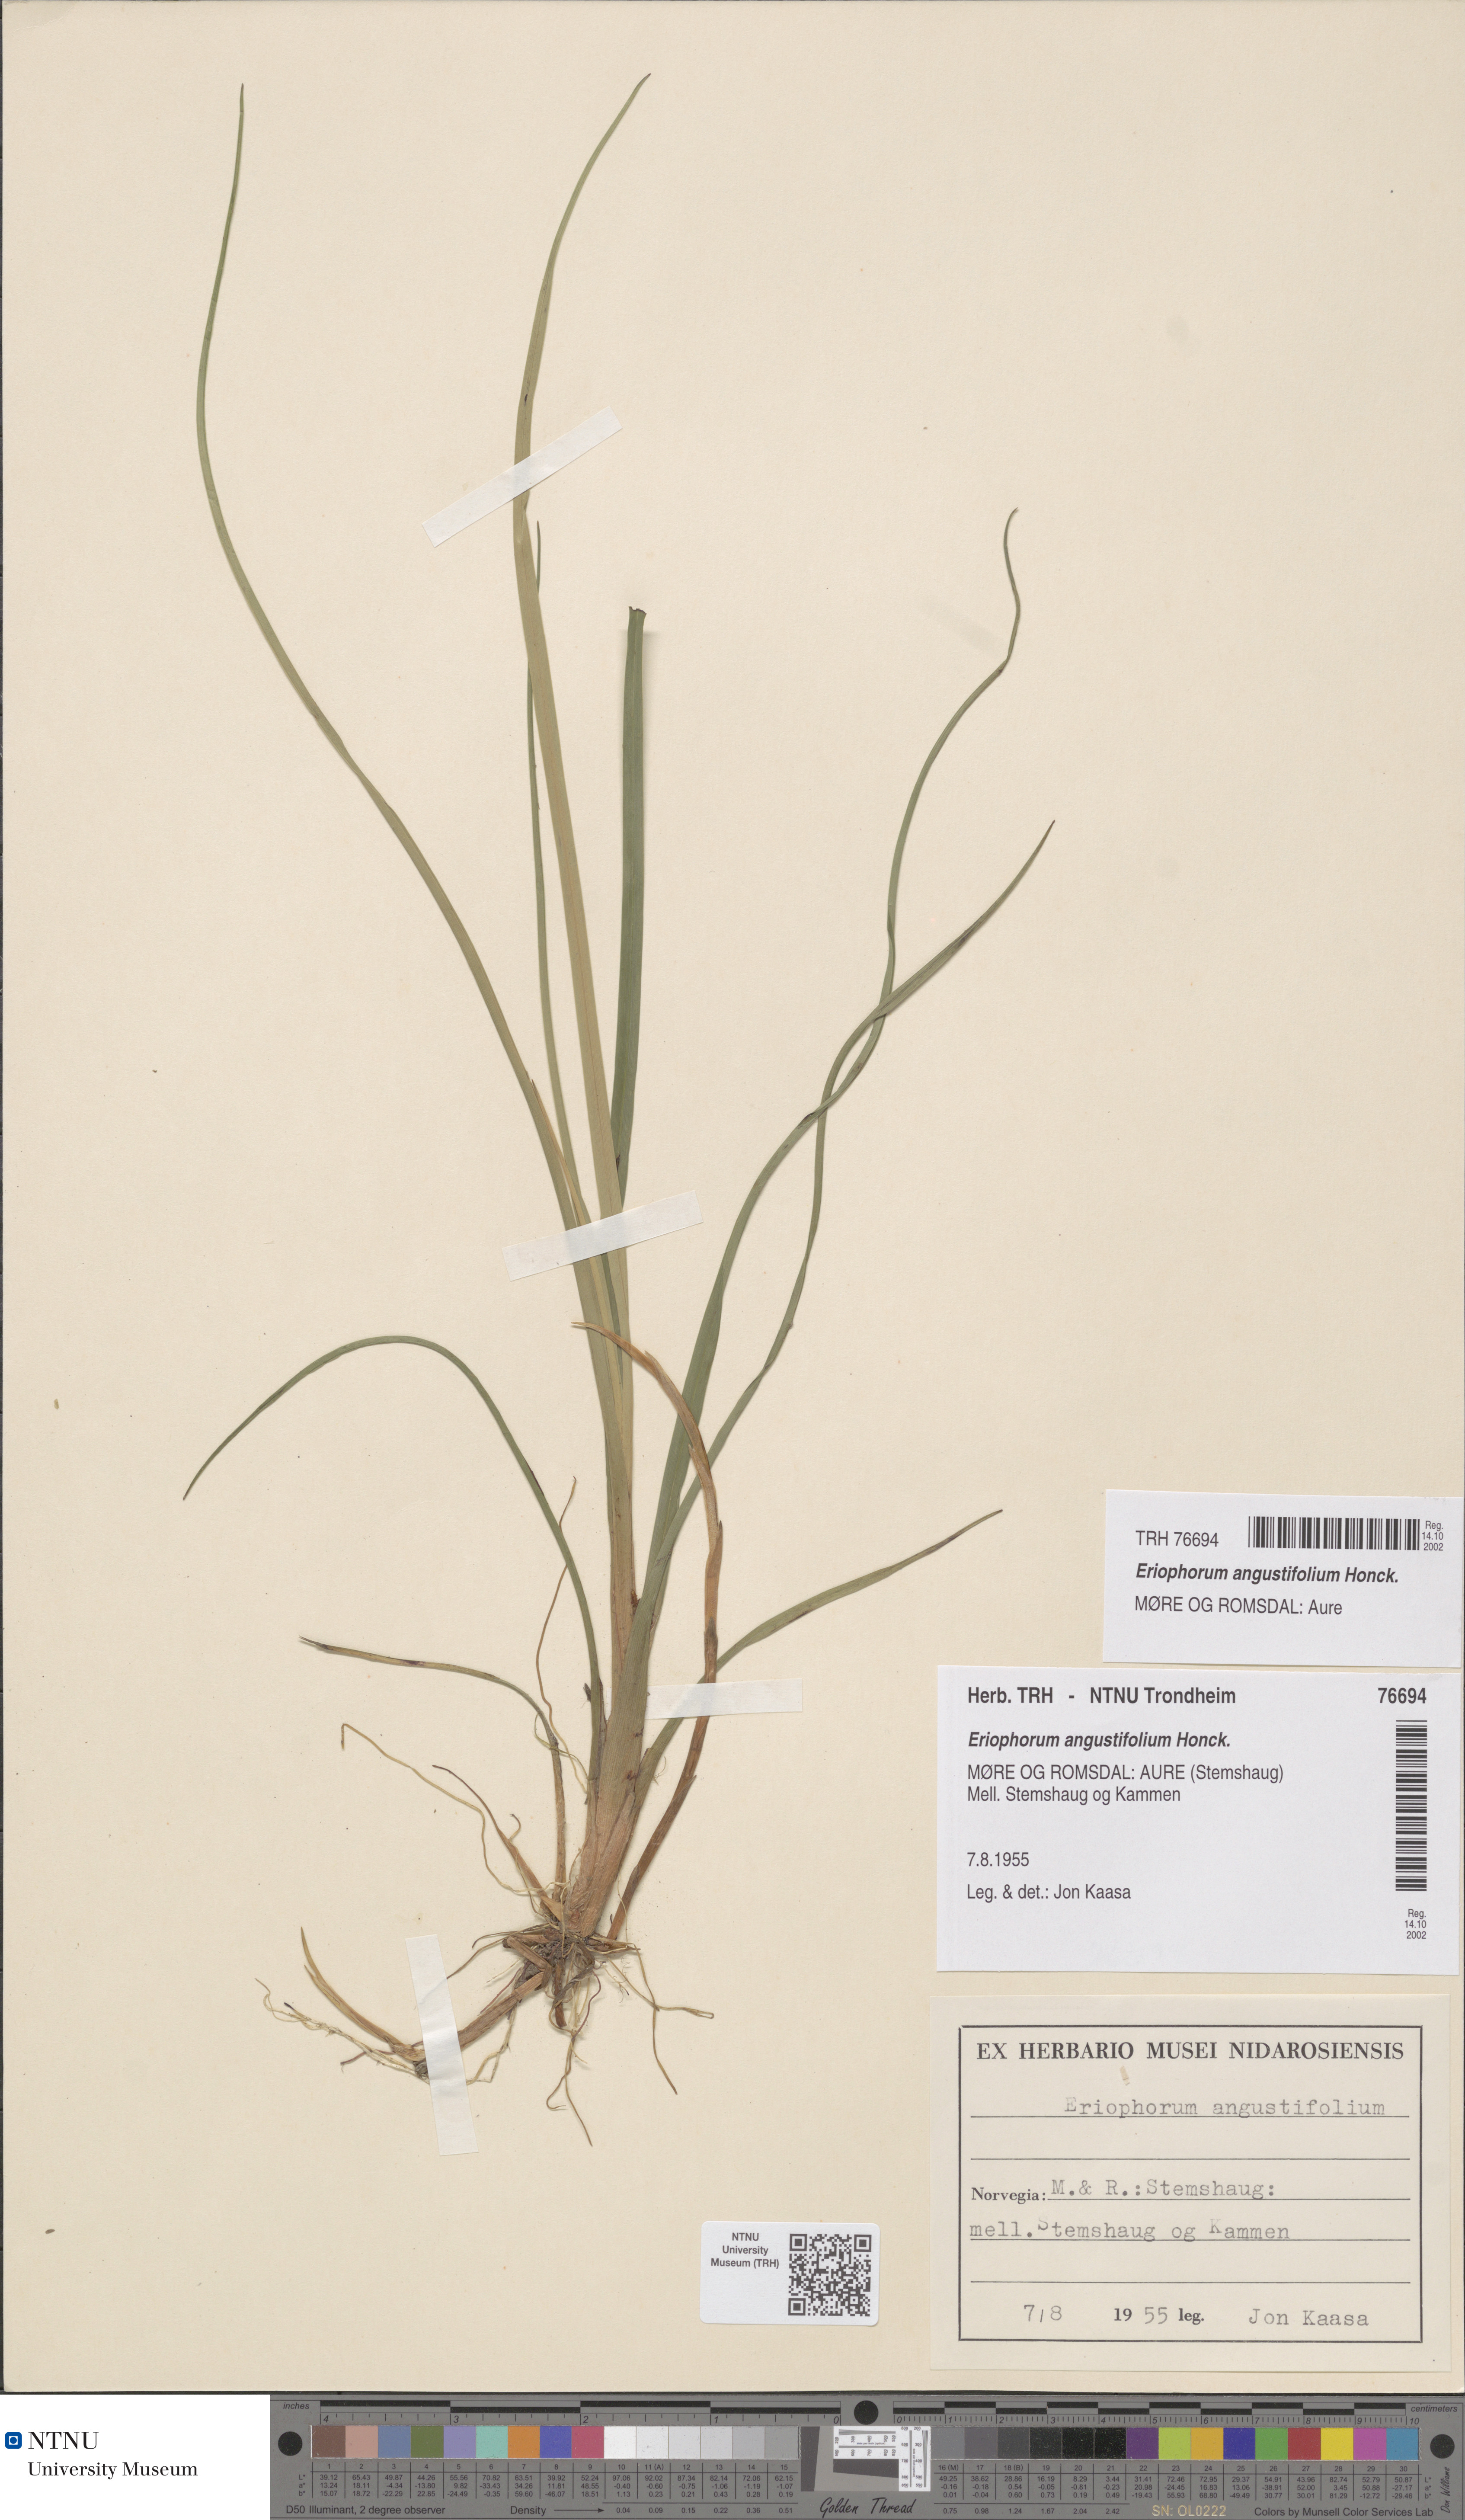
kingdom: Plantae
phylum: Tracheophyta
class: Liliopsida
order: Poales
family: Cyperaceae
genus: Eriophorum
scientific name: Eriophorum angustifolium
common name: Common cottongrass
